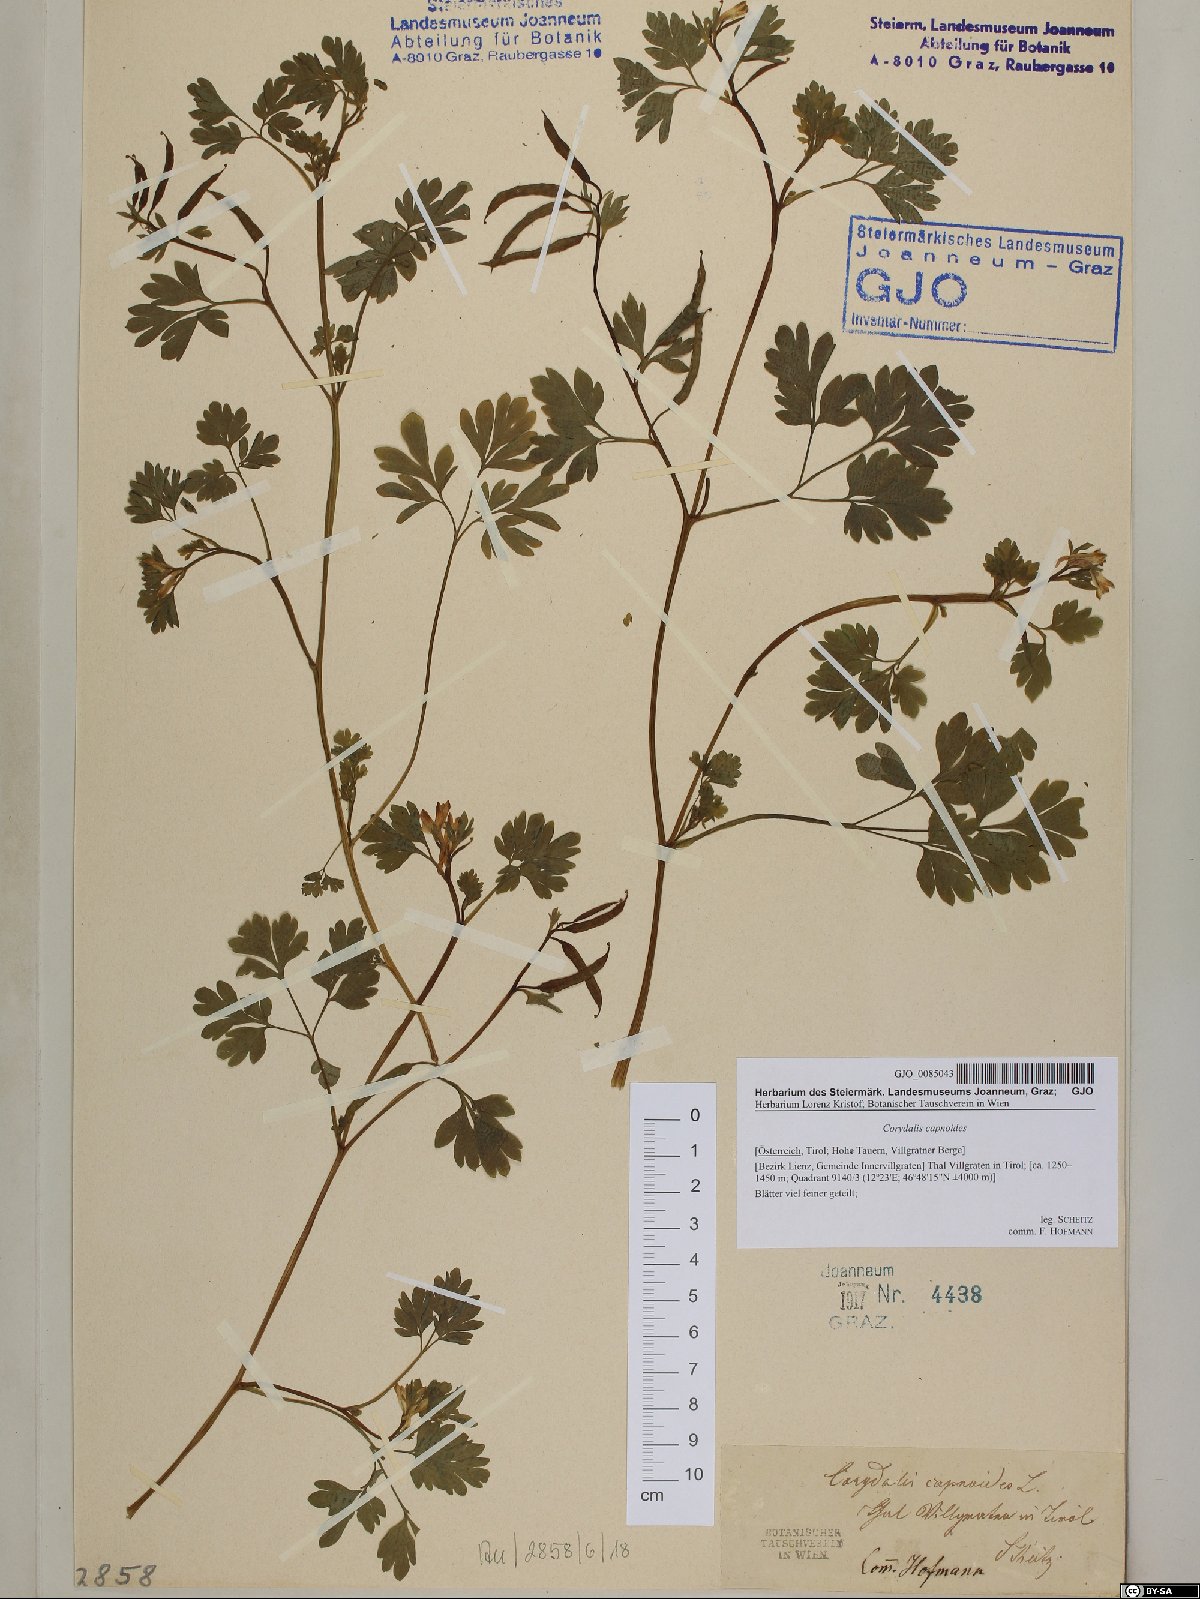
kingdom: Plantae
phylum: Tracheophyta
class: Magnoliopsida
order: Ranunculales
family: Papaveraceae
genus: Corydalis
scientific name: Corydalis capnoides
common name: Beaked corydalis
